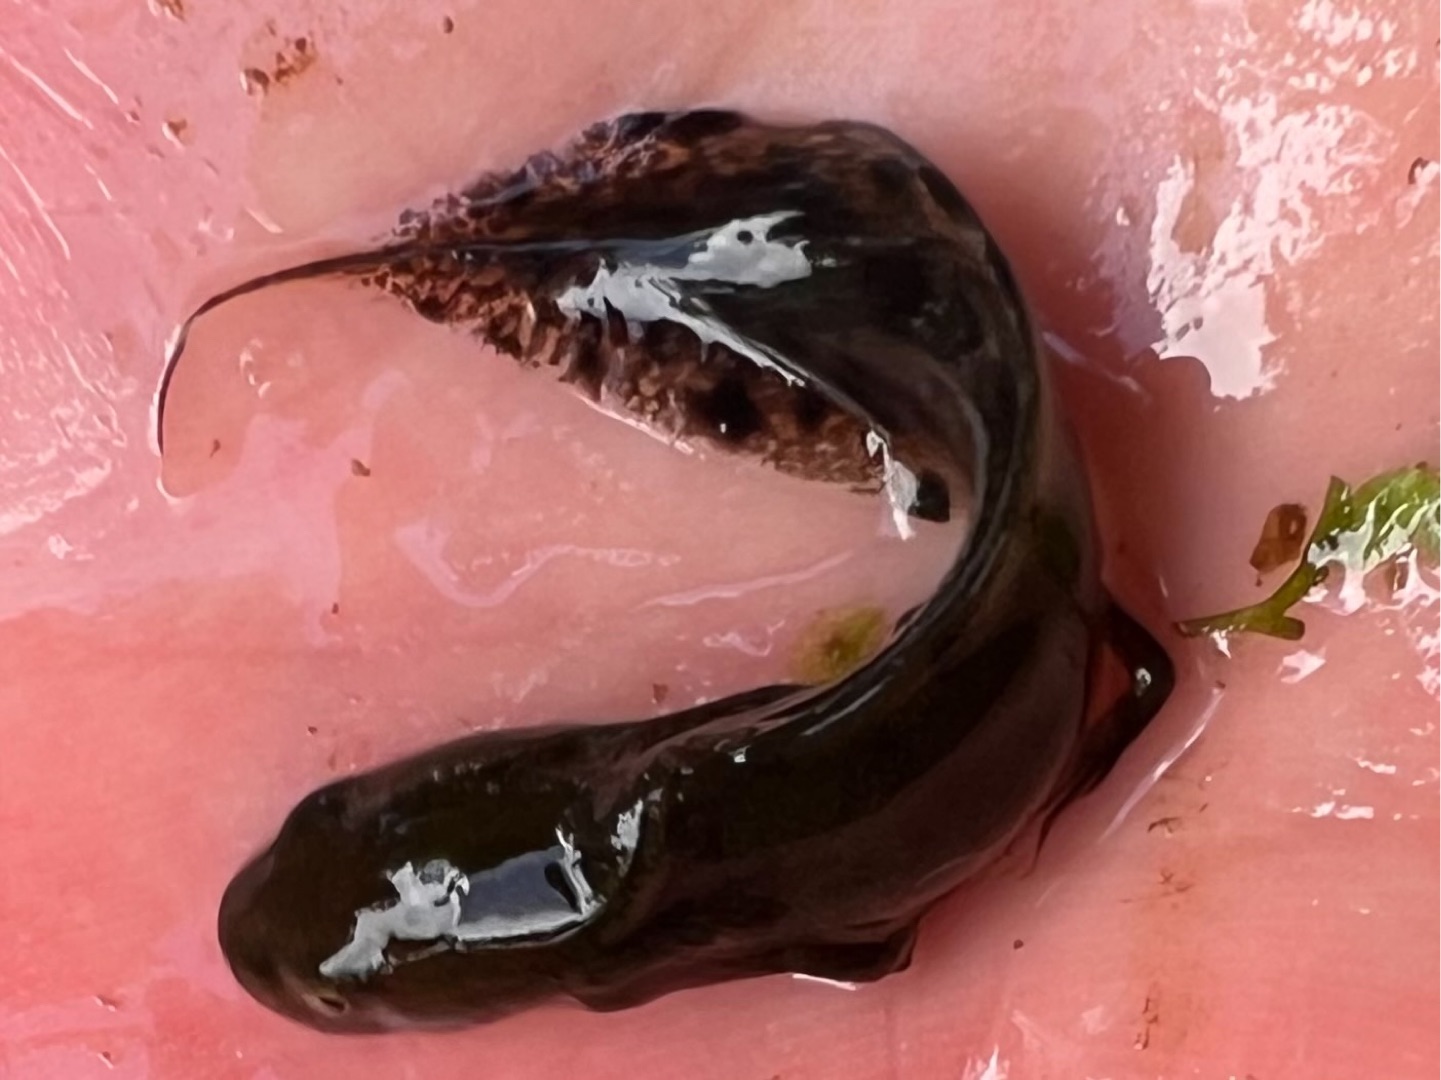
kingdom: Animalia
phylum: Chordata
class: Amphibia
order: Caudata
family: Salamandridae
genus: Triturus
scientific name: Triturus cristatus
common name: Stor vandsalamander
